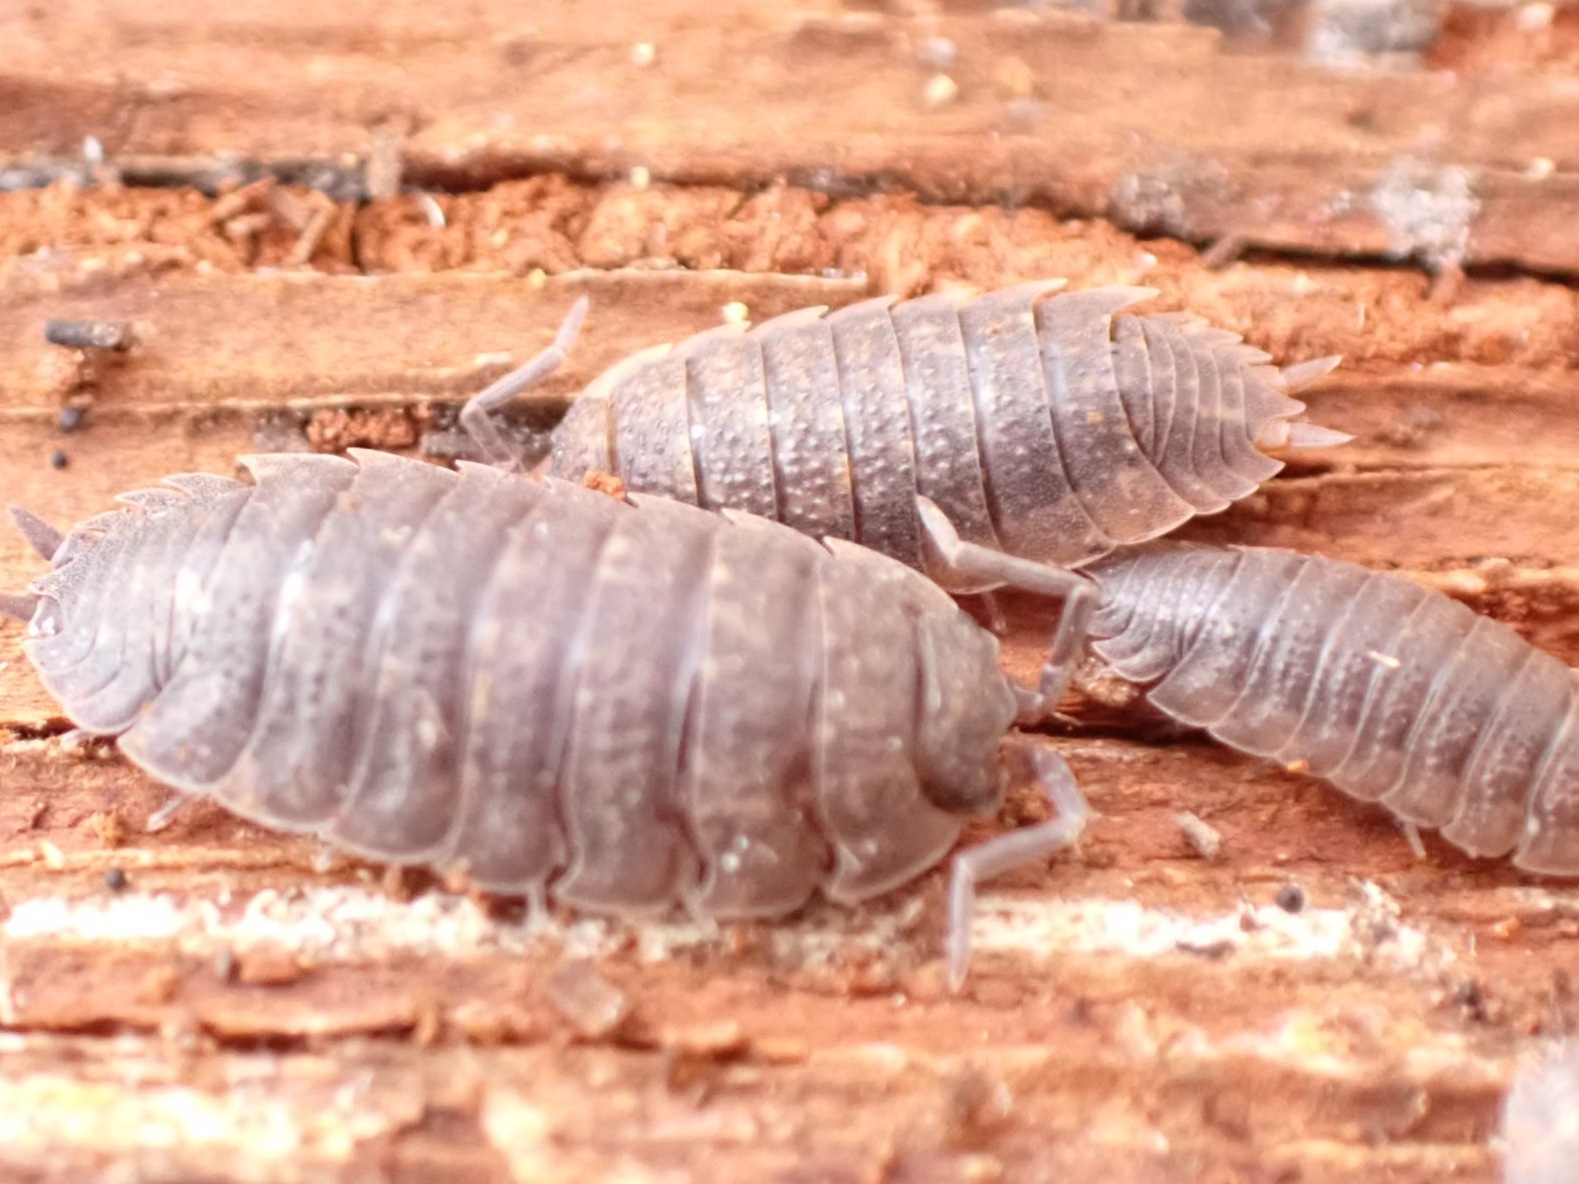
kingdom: Animalia
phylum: Arthropoda
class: Malacostraca
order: Isopoda
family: Porcellionidae
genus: Porcellio
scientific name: Porcellio scaber
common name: Grå bænkebider
